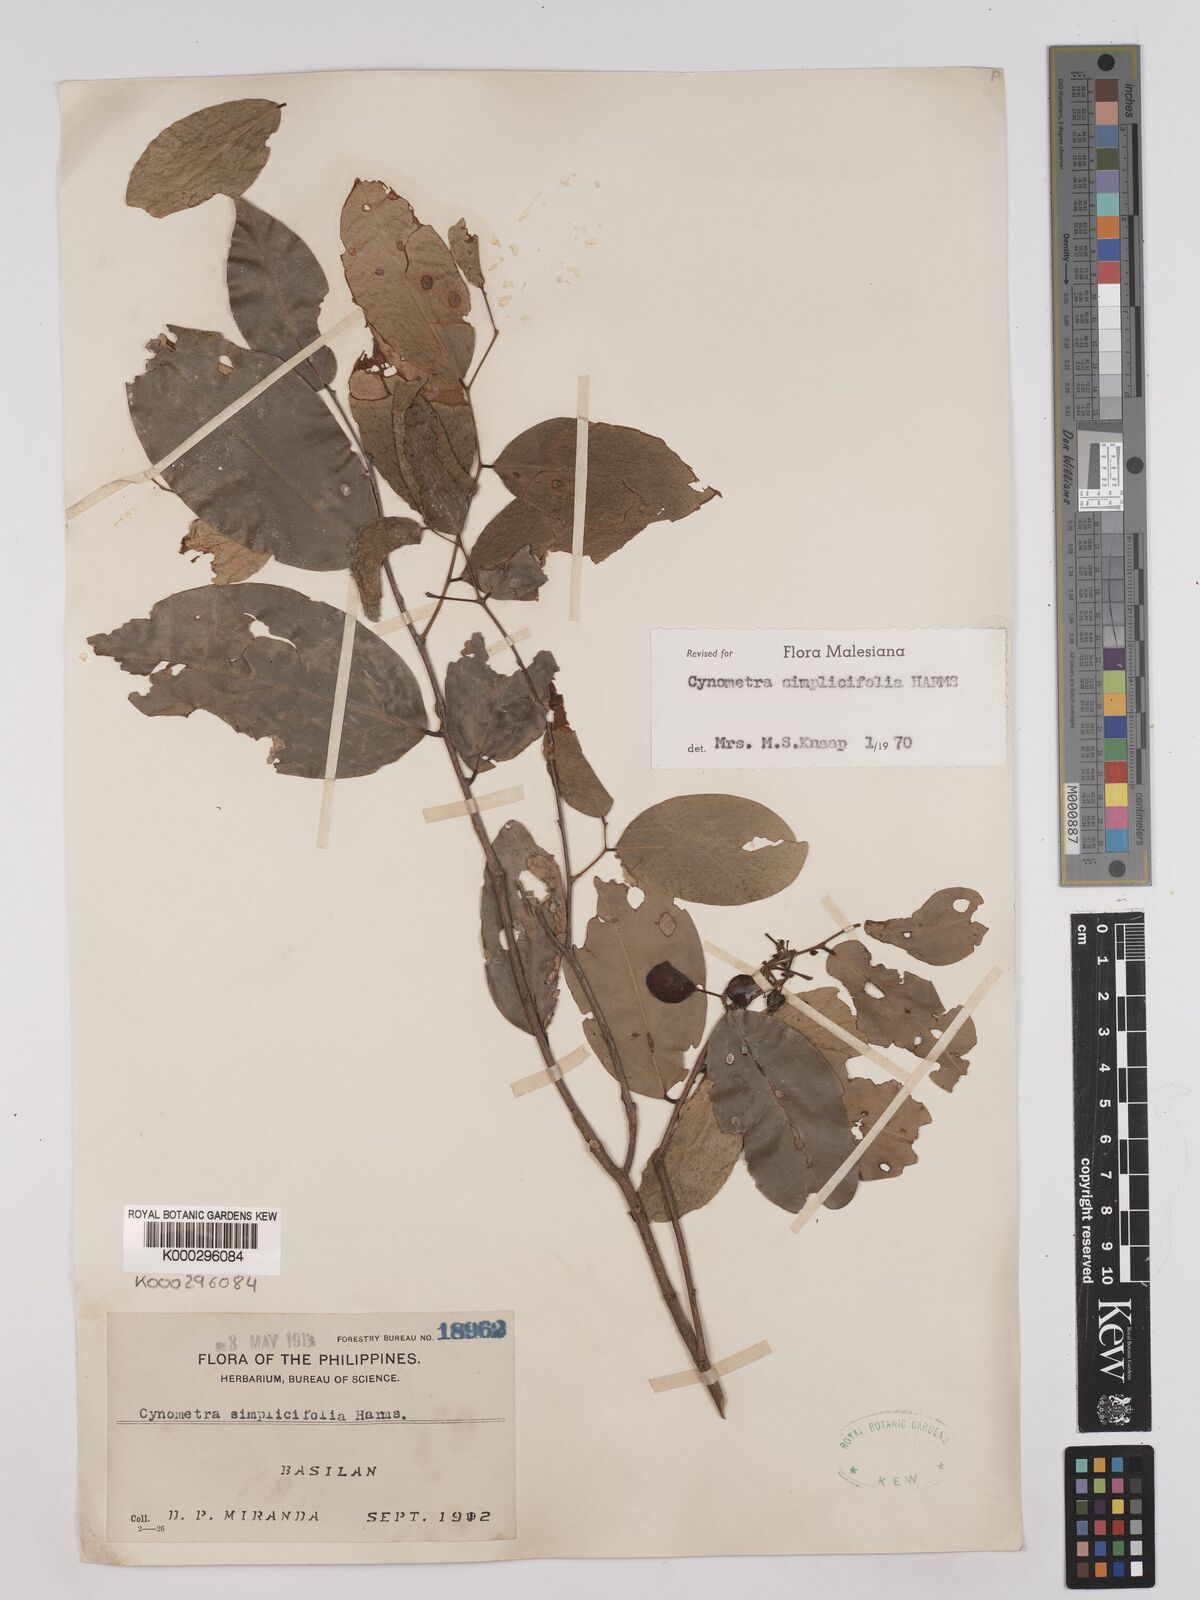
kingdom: Plantae
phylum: Tracheophyta
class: Magnoliopsida
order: Fabales
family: Fabaceae
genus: Cynometra
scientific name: Cynometra simplicifolia
